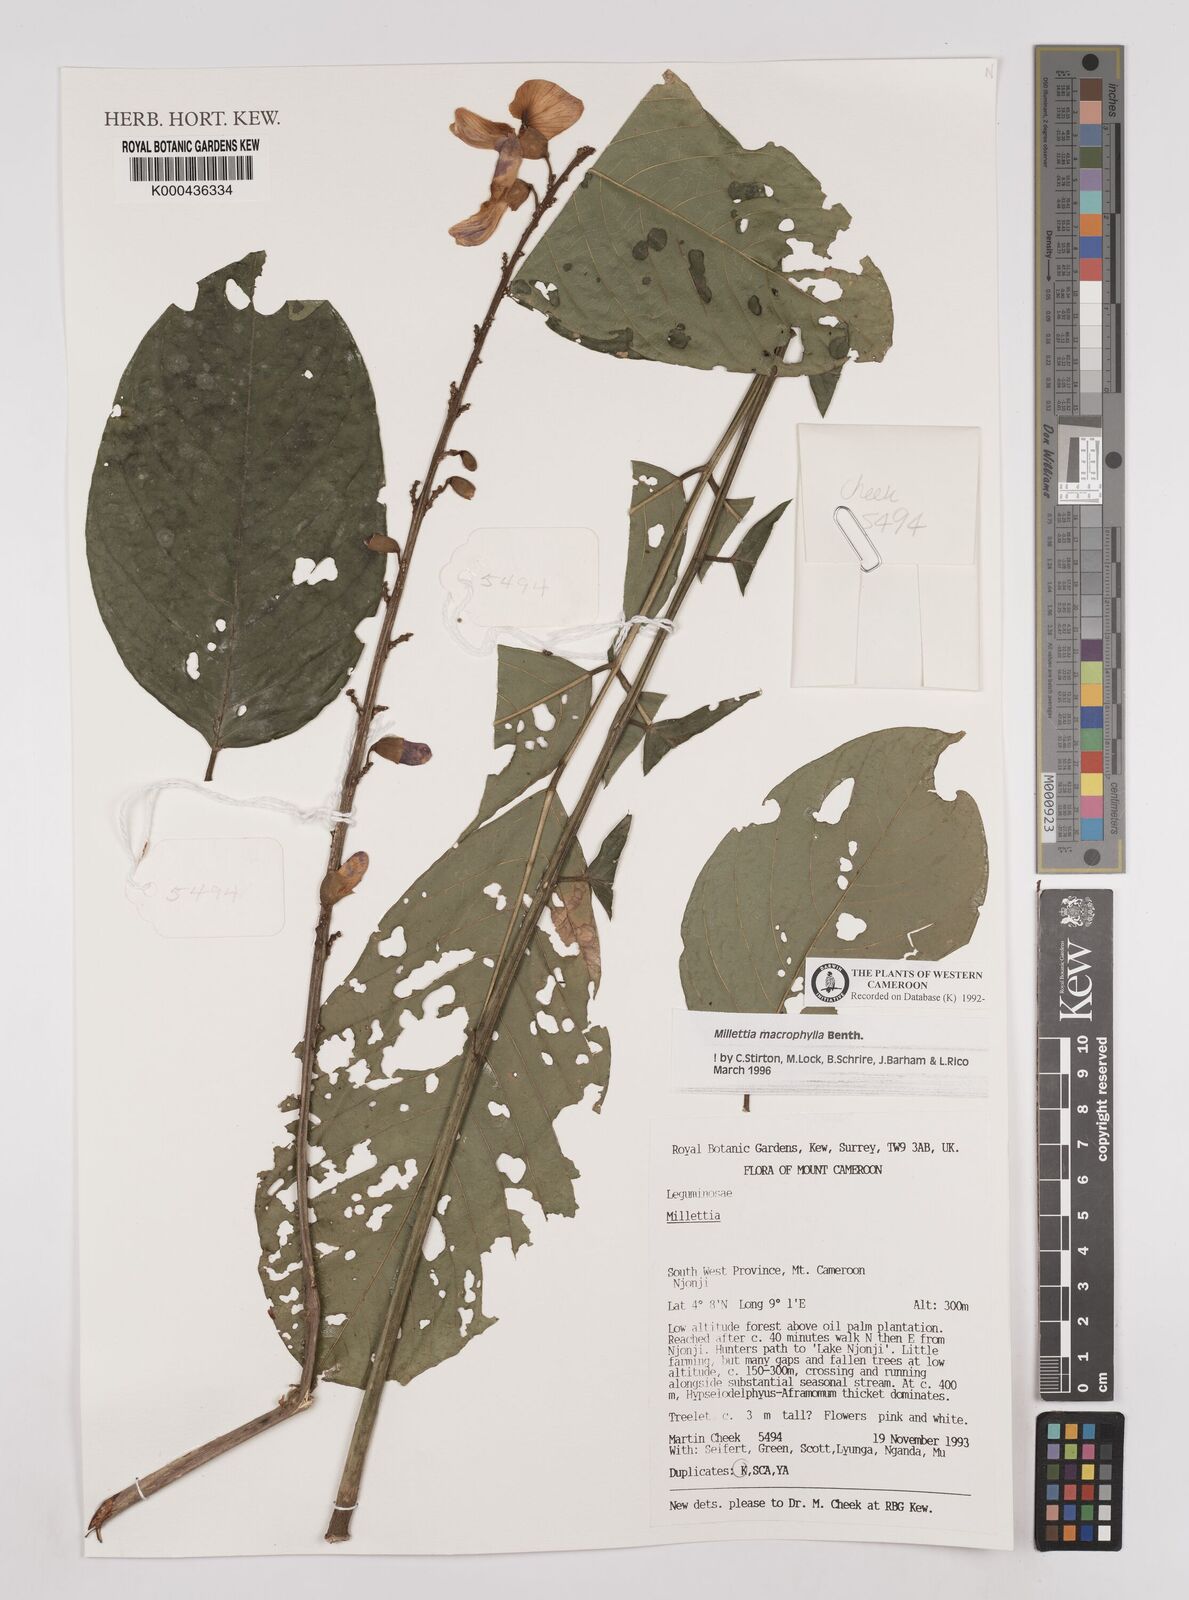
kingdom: Plantae
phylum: Tracheophyta
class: Magnoliopsida
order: Fabales
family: Fabaceae
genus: Millettia
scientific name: Millettia macrophylla
